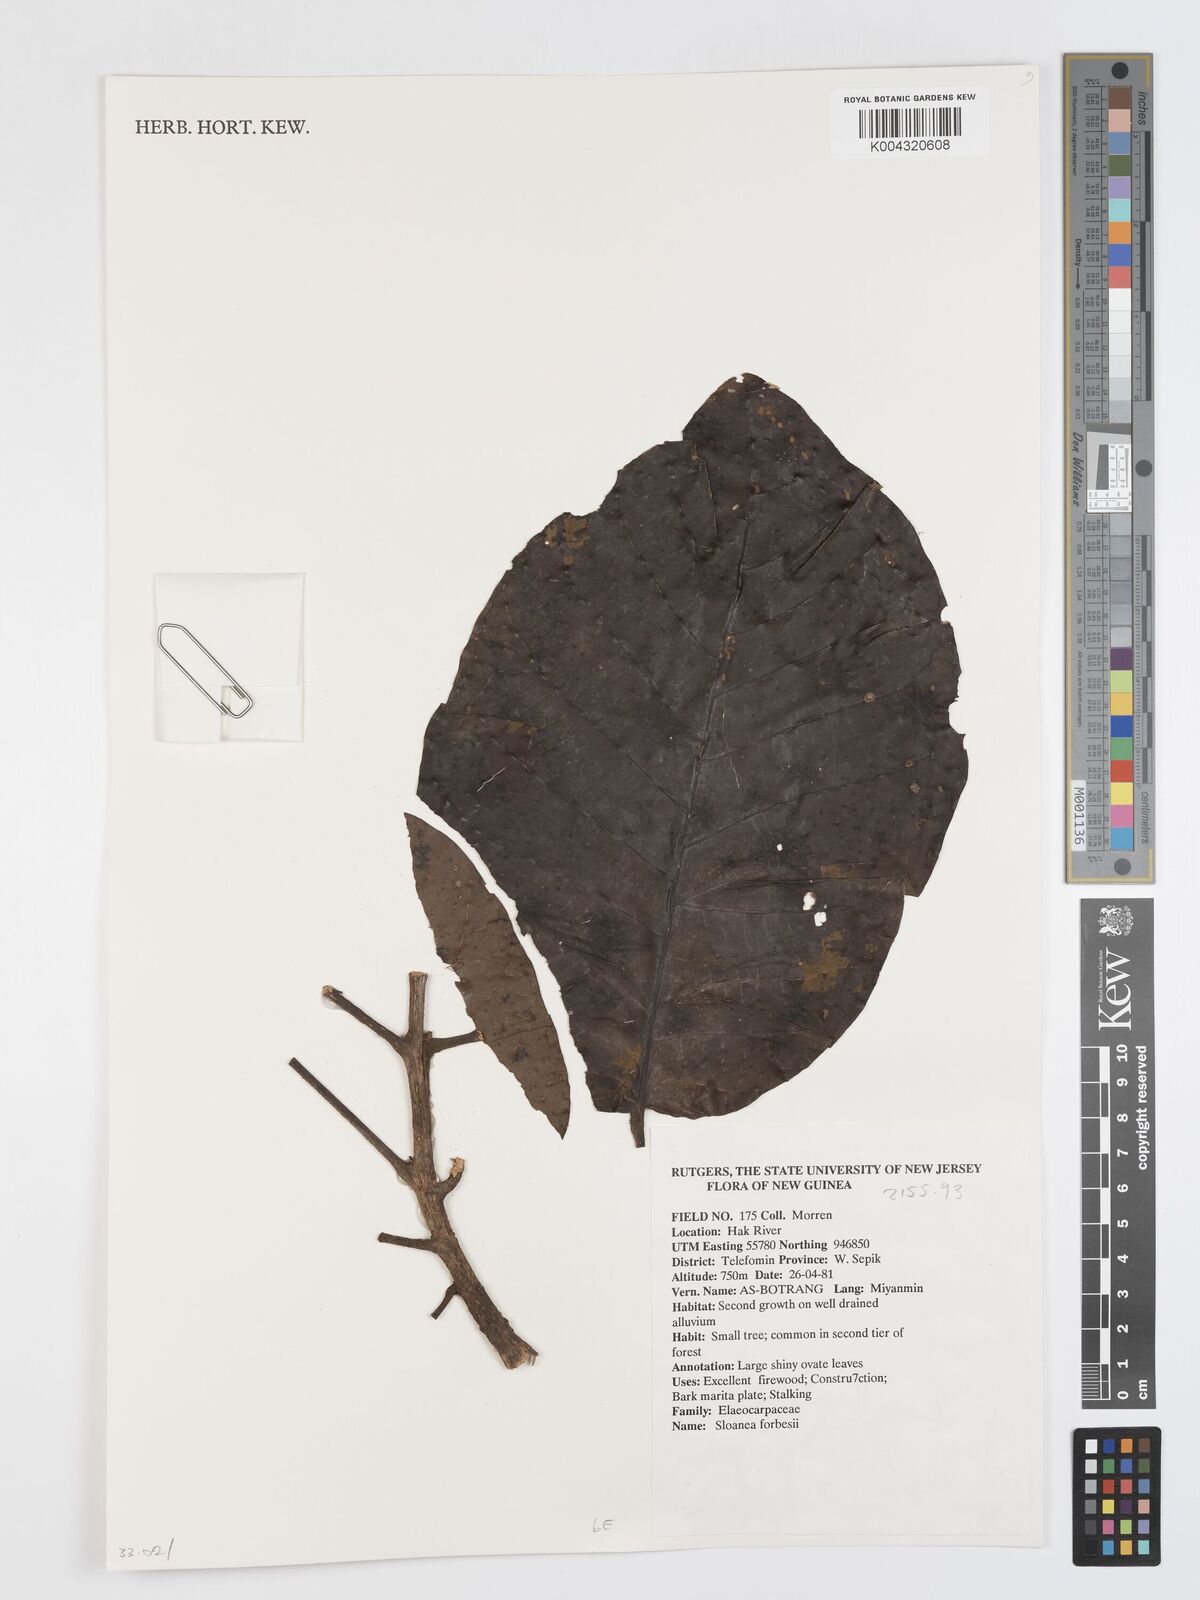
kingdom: Plantae
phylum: Tracheophyta
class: Magnoliopsida
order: Oxalidales
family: Elaeocarpaceae
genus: Sloanea
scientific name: Sloanea forbesii
